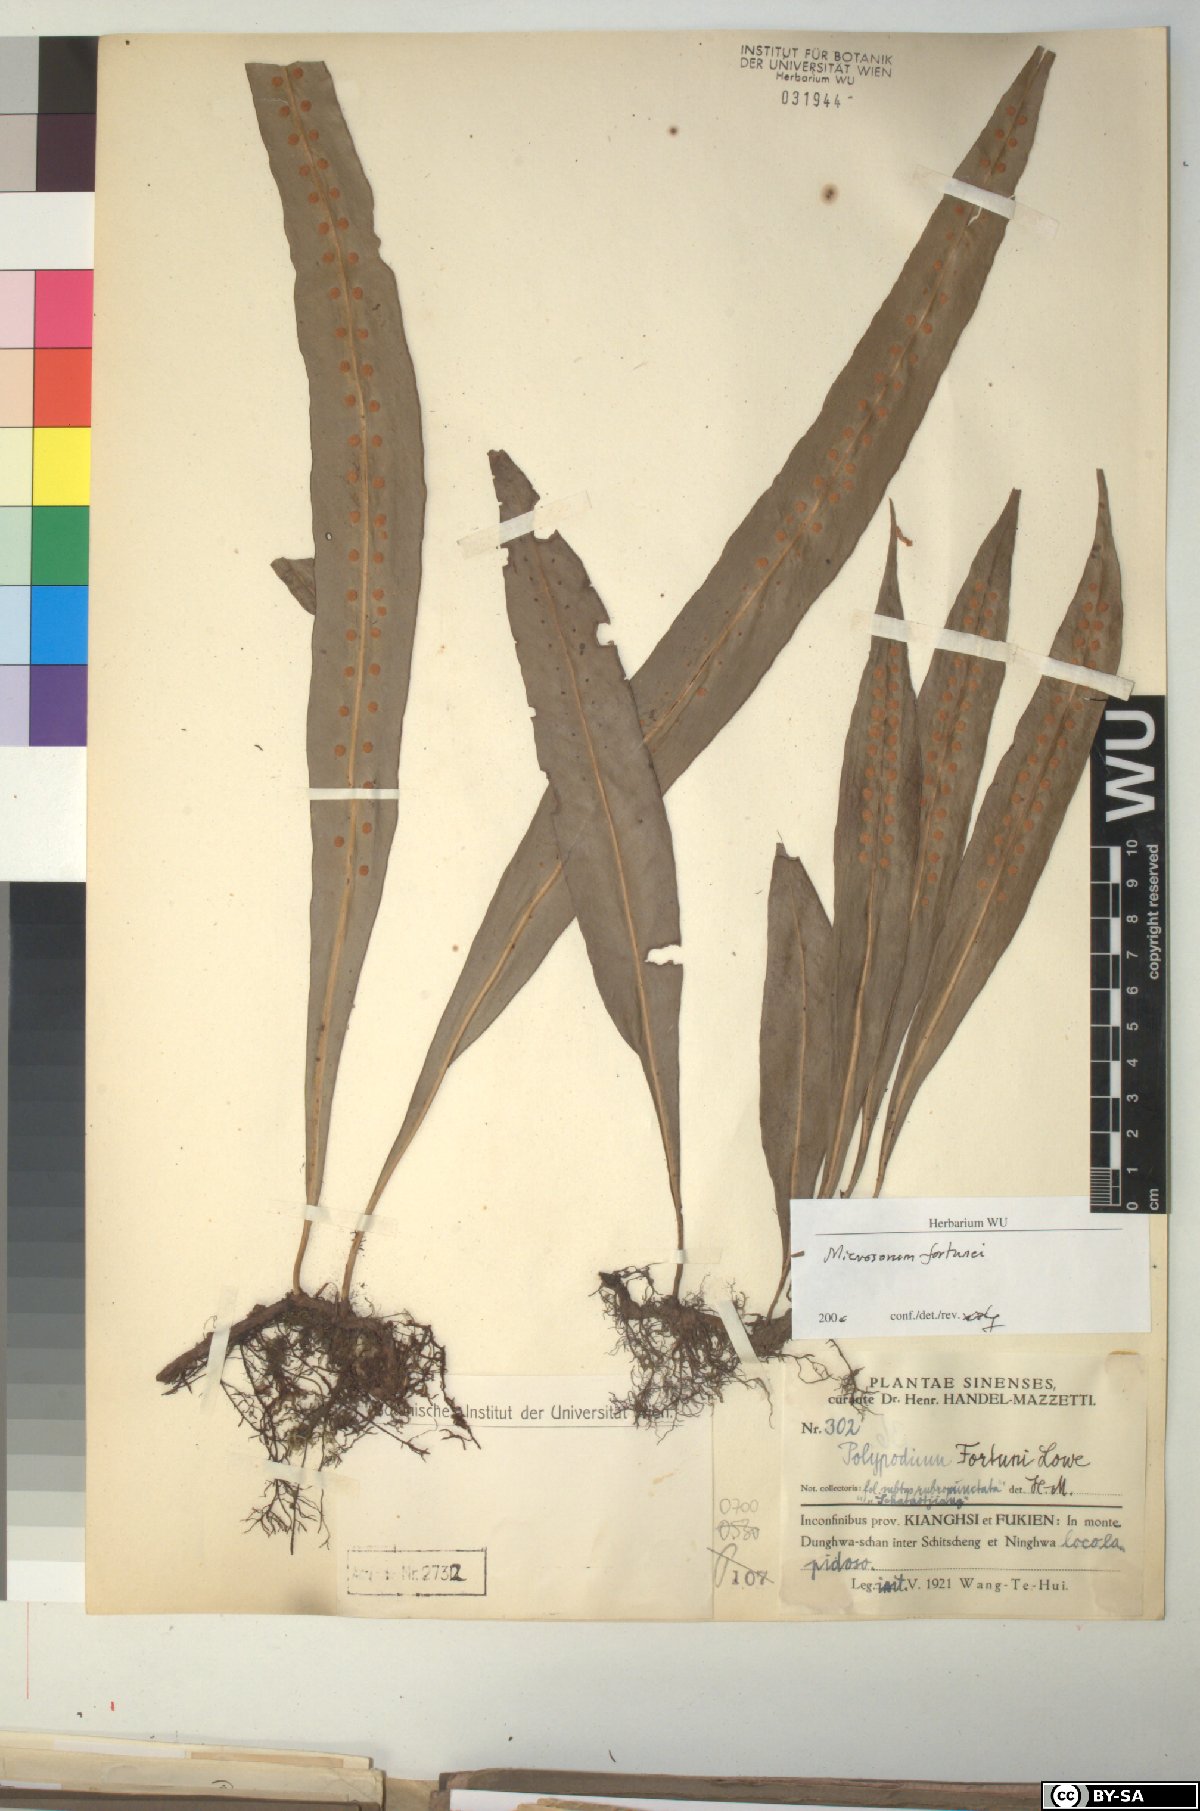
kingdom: Plantae
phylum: Tracheophyta
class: Polypodiopsida
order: Polypodiales
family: Polypodiaceae
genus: Lepisorus
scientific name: Lepisorus fortuni
